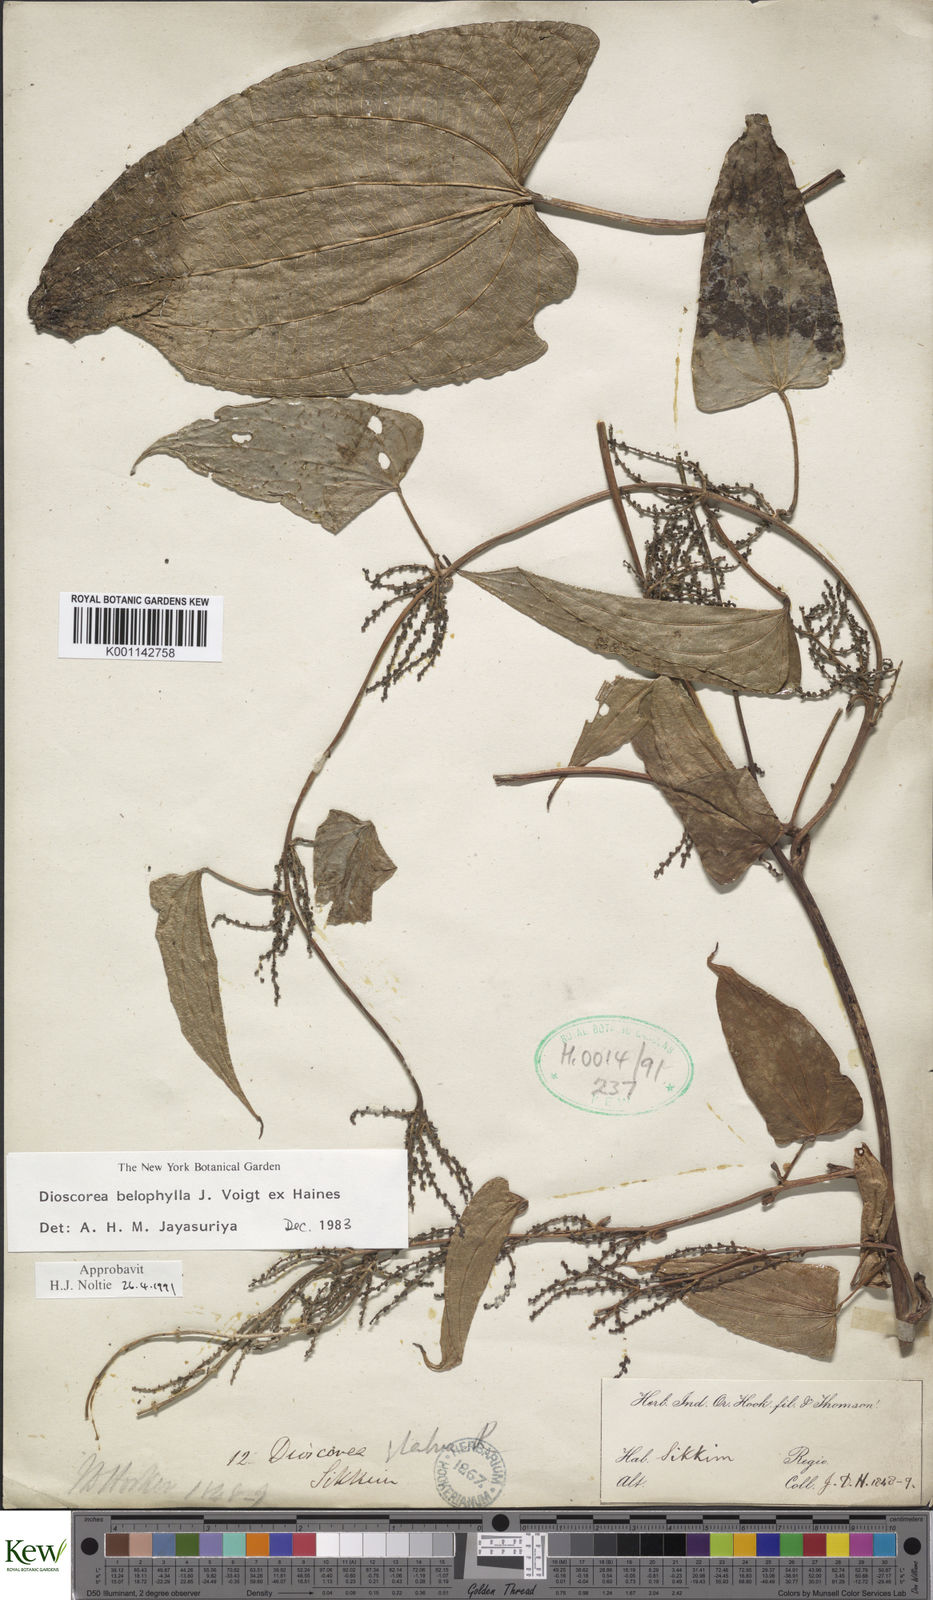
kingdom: Plantae
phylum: Tracheophyta
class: Liliopsida
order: Dioscoreales
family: Dioscoreaceae
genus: Dioscorea
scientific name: Dioscorea belophylla
